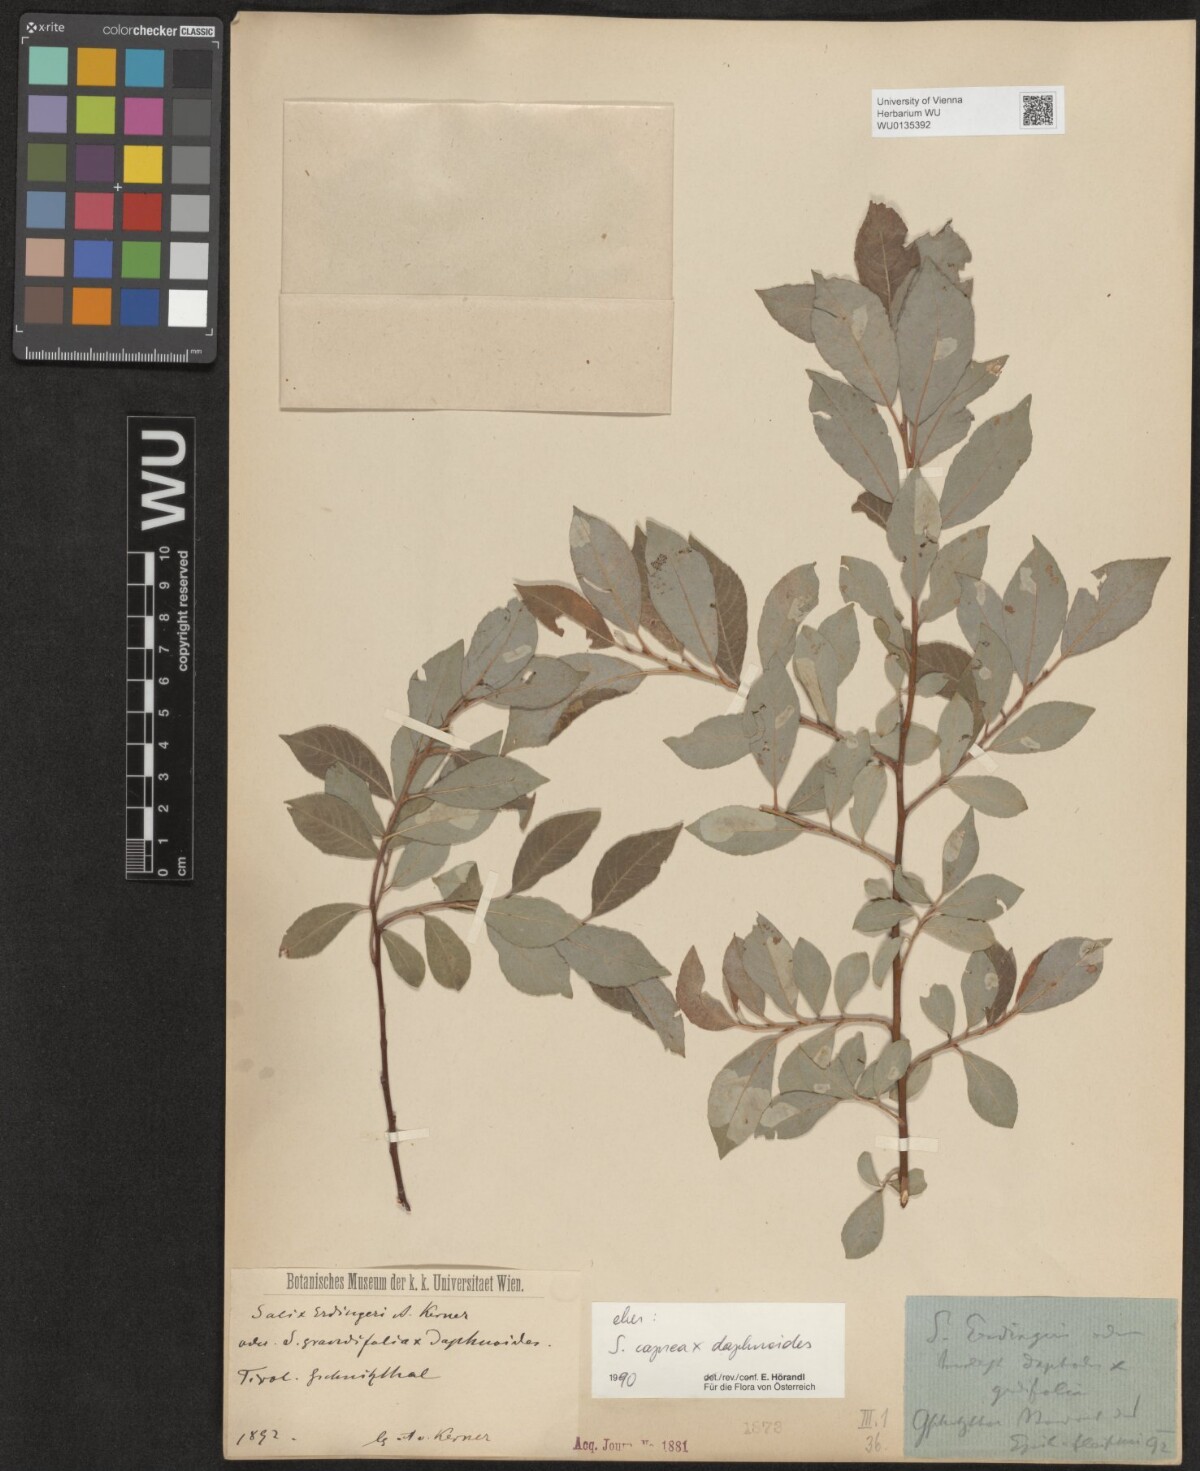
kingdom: Plantae
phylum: Tracheophyta
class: Magnoliopsida
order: Malpighiales
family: Salicaceae
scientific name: Salicaceae
